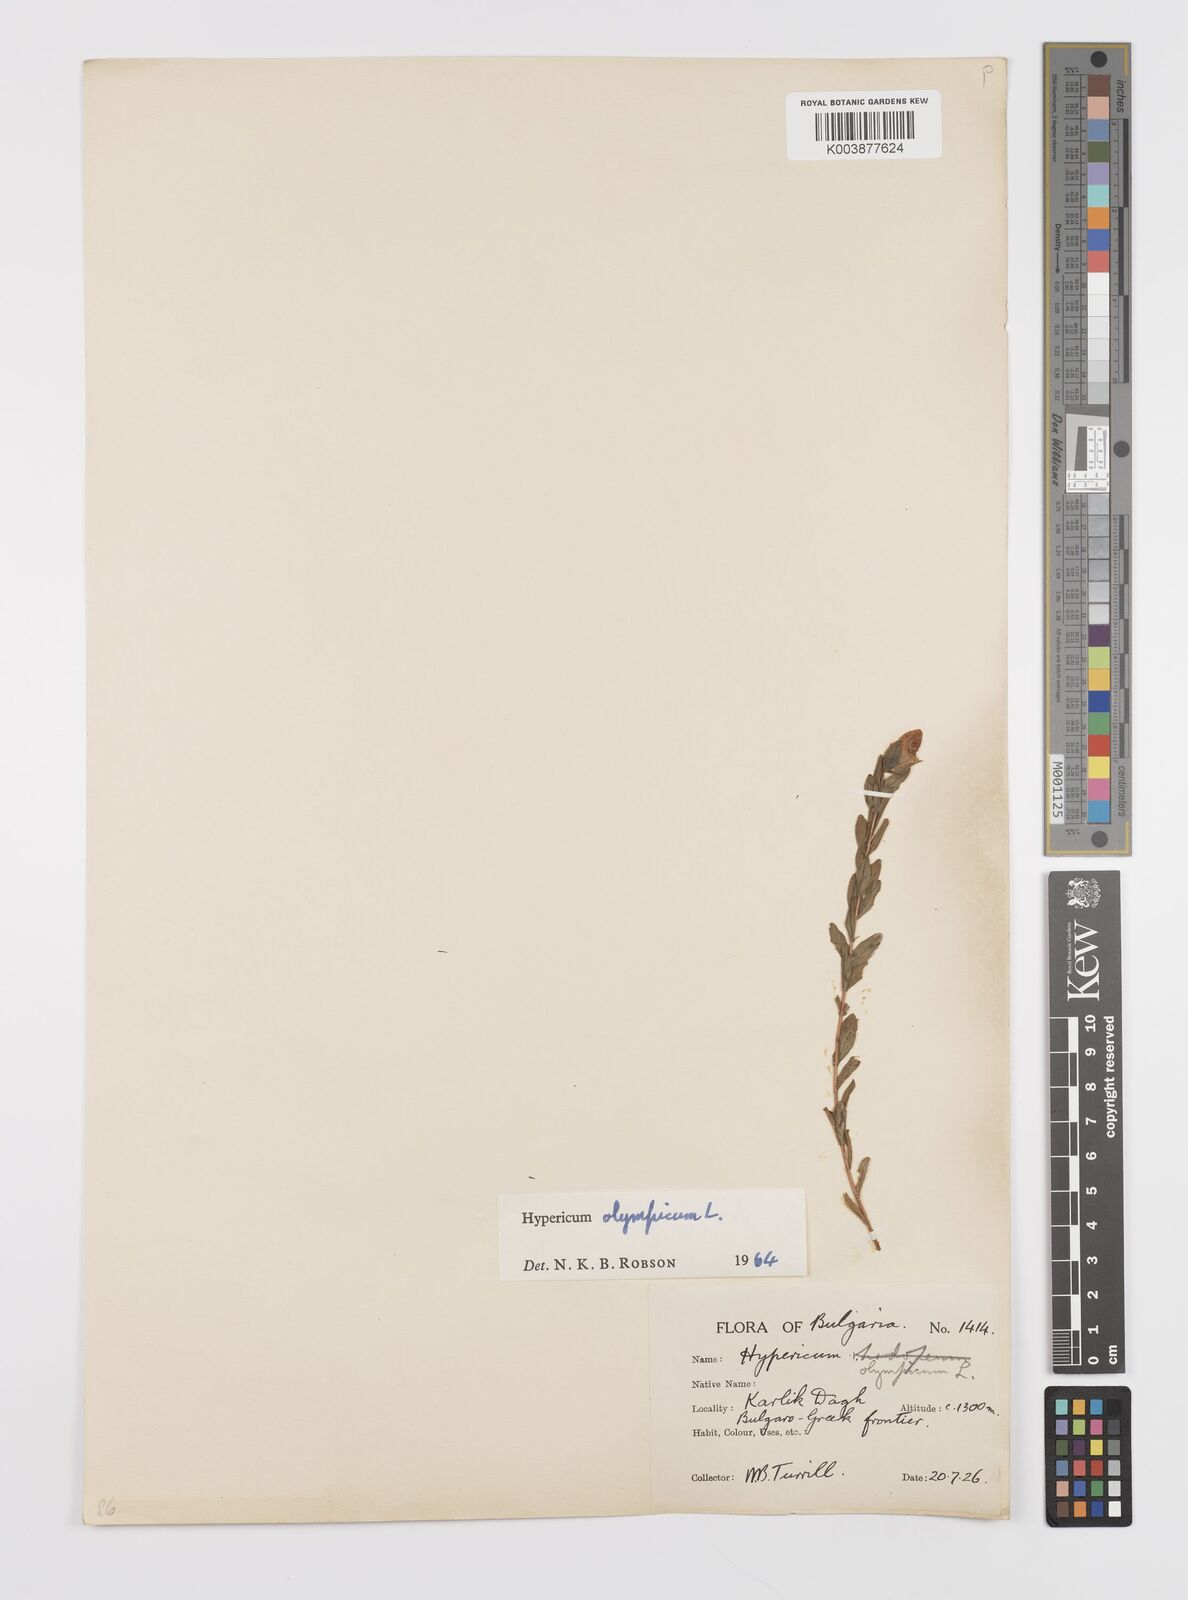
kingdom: Plantae
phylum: Tracheophyta
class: Magnoliopsida
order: Malpighiales
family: Hypericaceae
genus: Hypericum
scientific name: Hypericum olympicum
